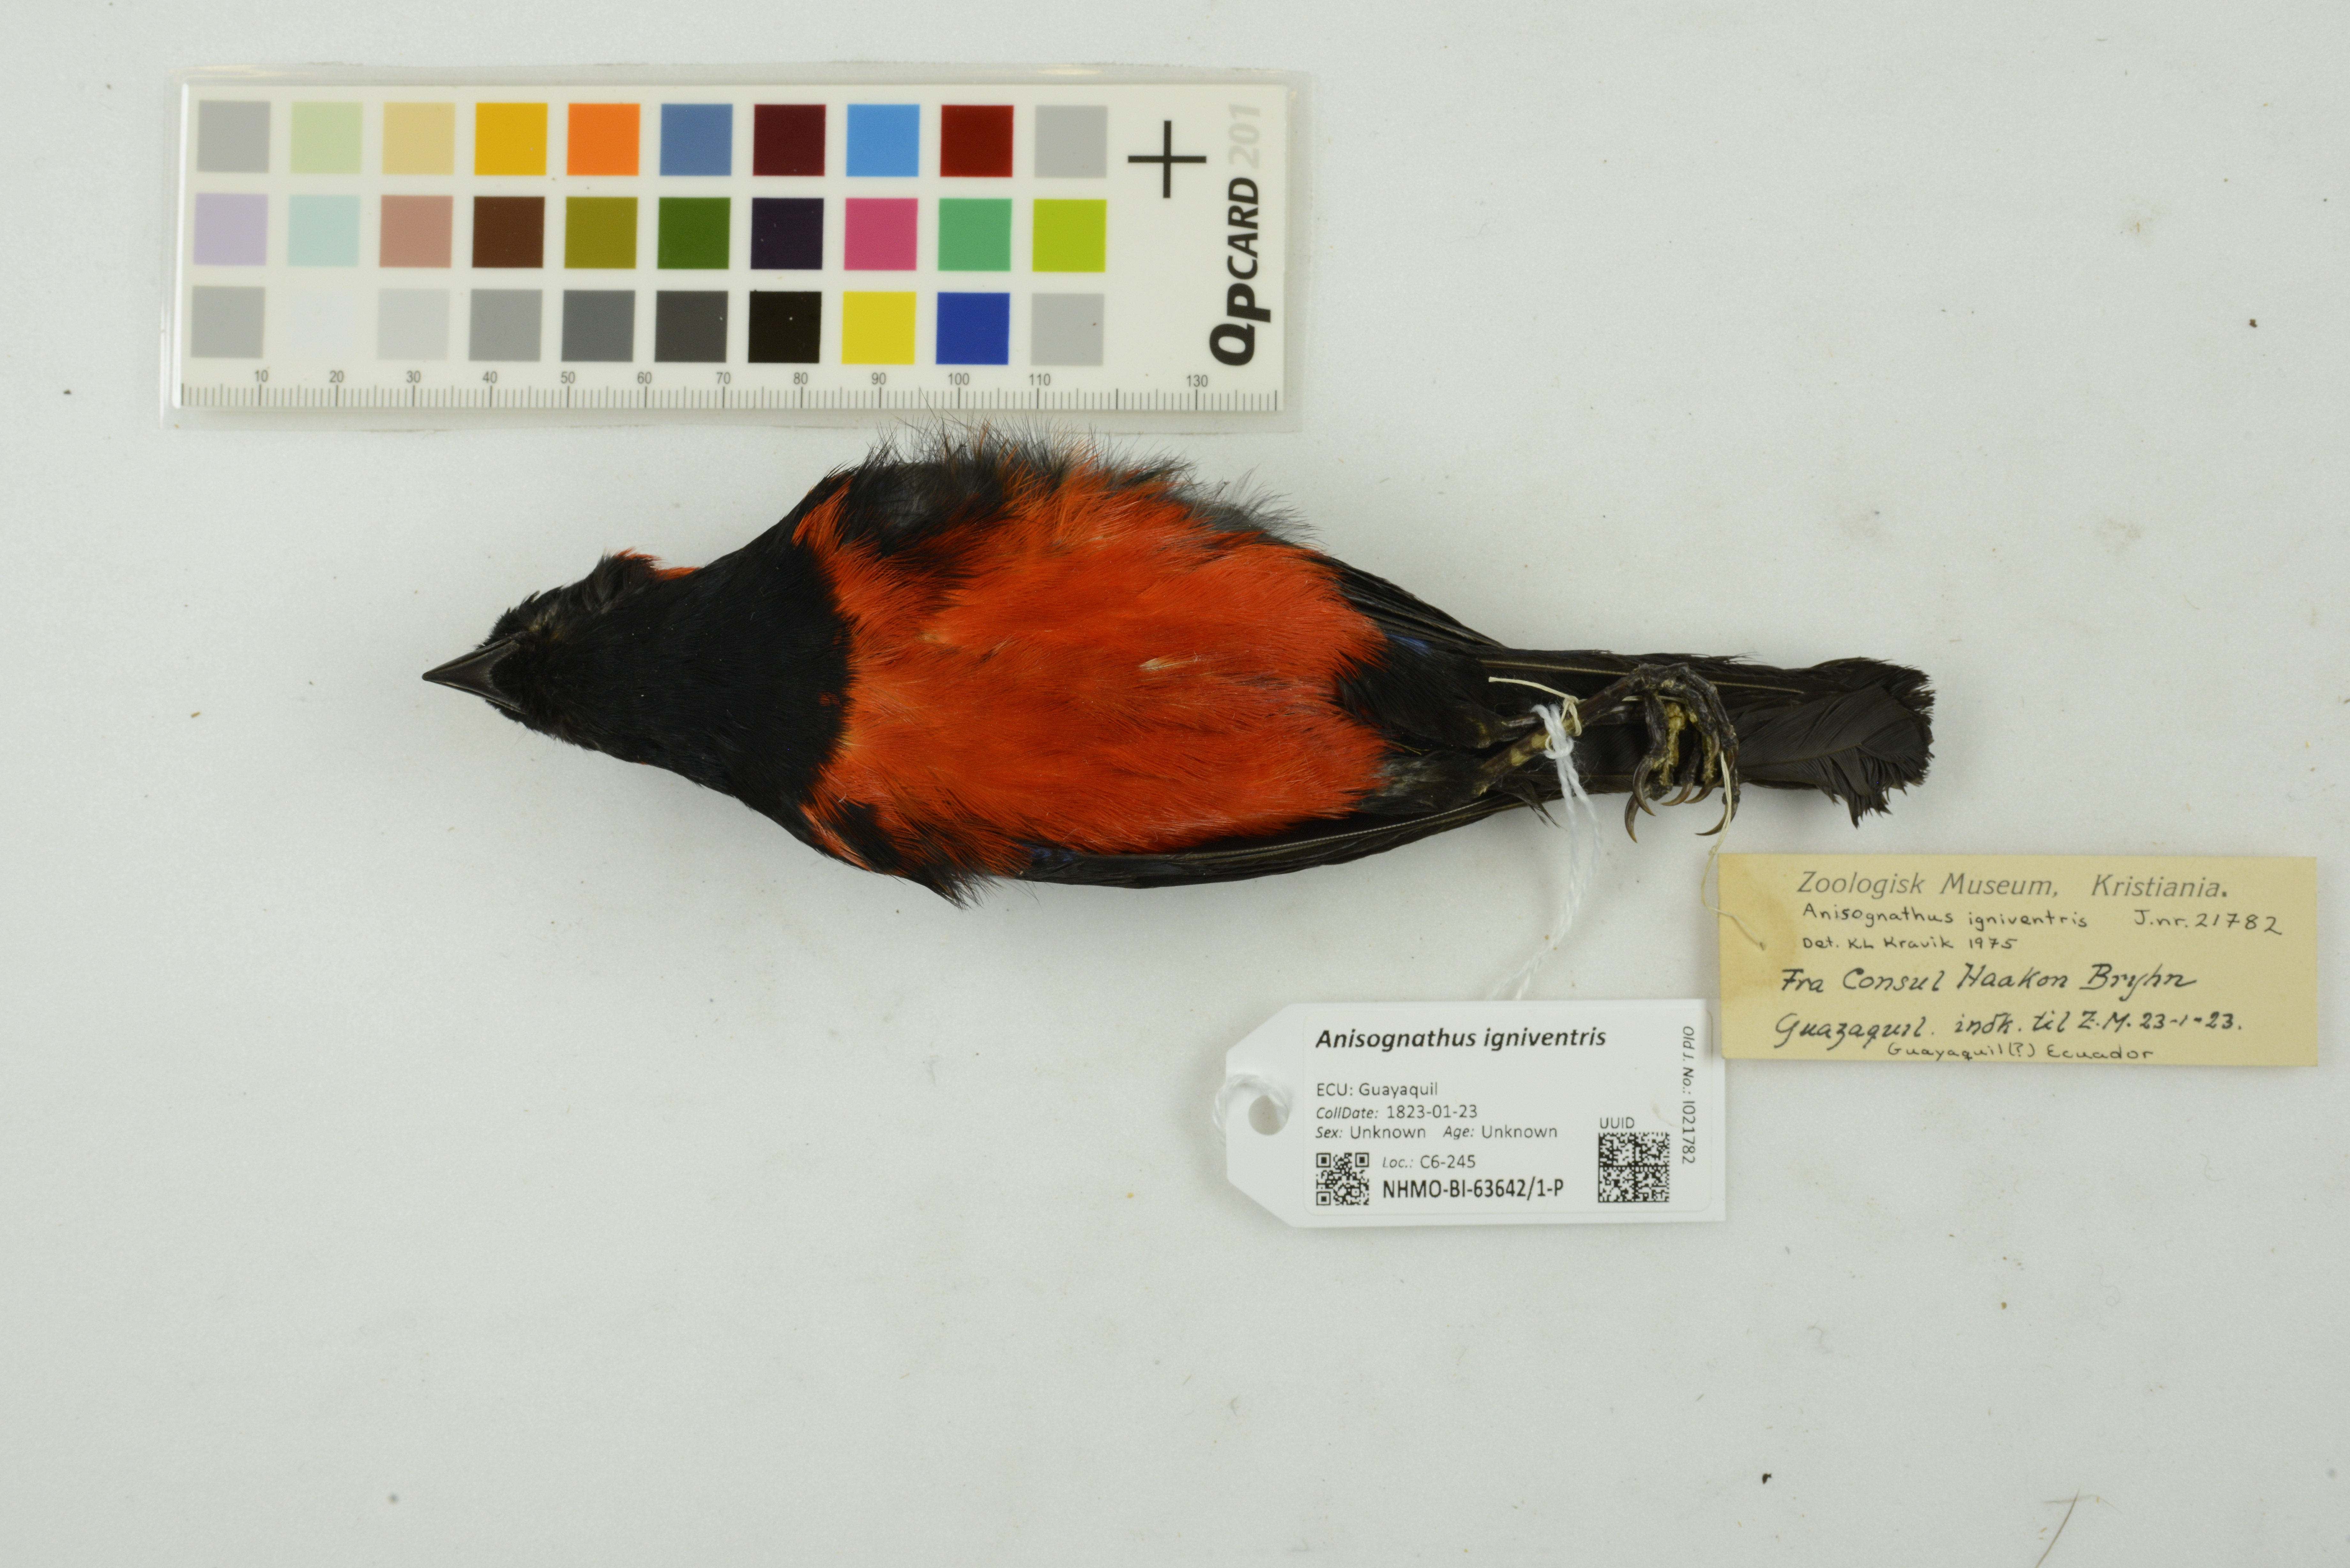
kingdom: Animalia
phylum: Chordata
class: Aves
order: Passeriformes
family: Thraupidae
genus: Anisognathus
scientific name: Anisognathus igniventris
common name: Scarlet-bellied mountain tanager
